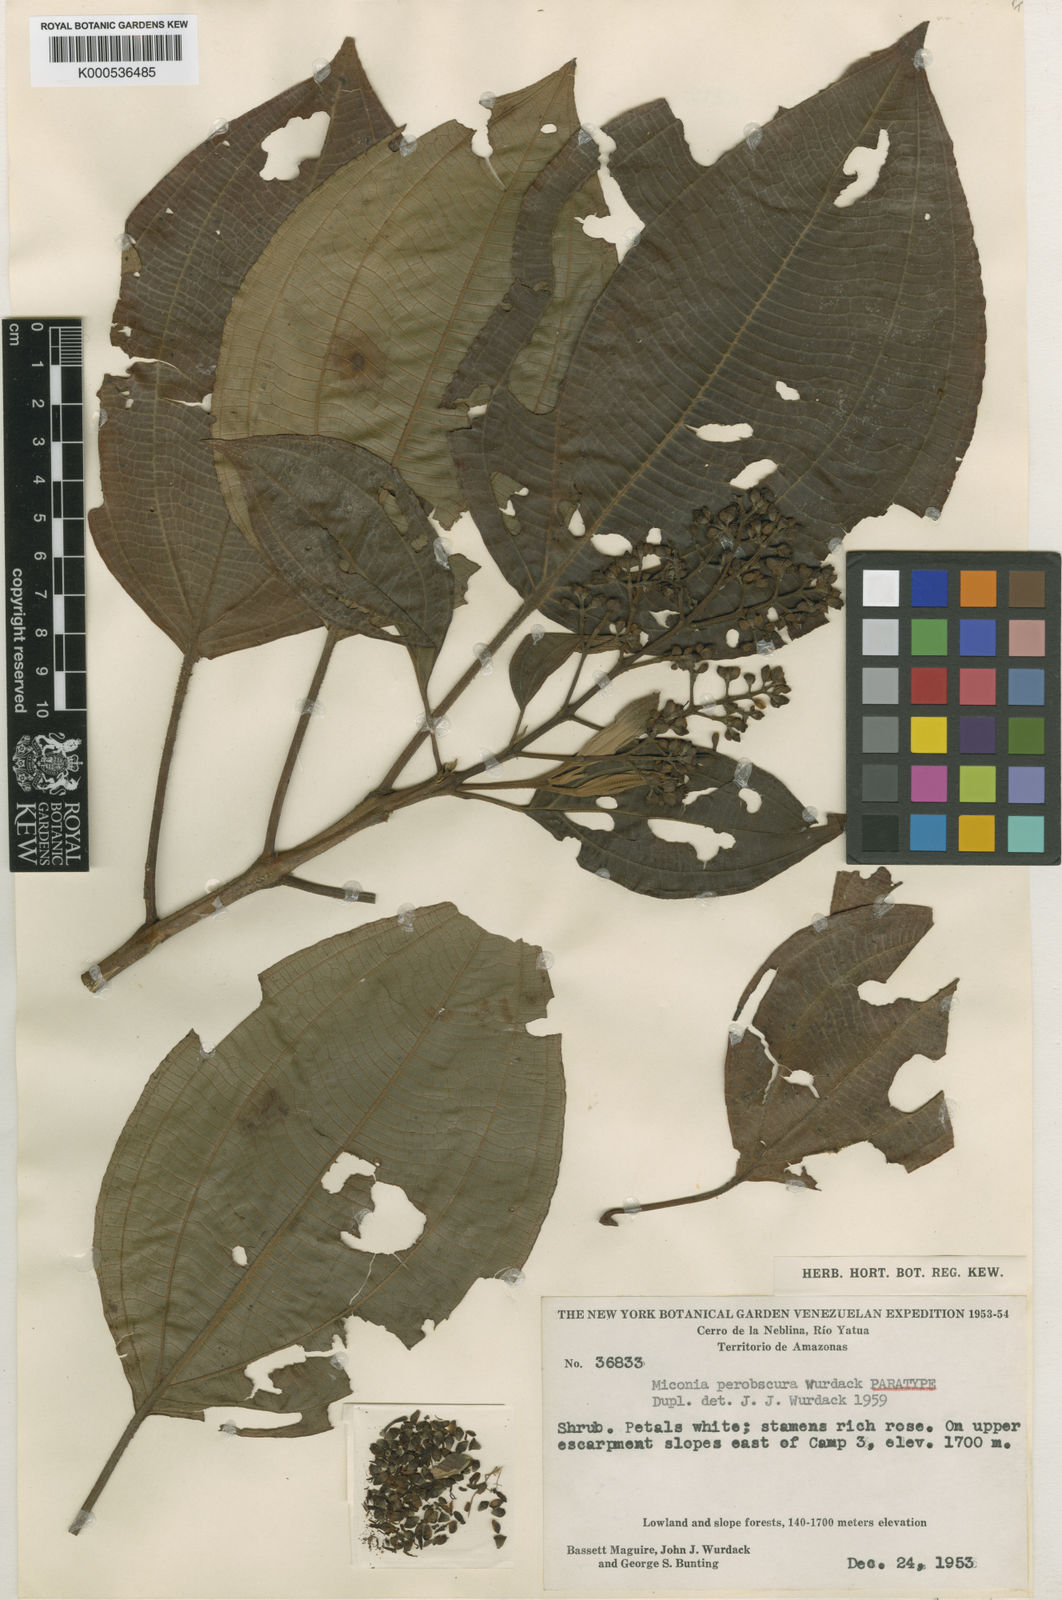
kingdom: Plantae
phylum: Tracheophyta
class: Magnoliopsida
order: Myrtales
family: Melastomataceae
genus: Miconia
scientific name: Miconia perobscura
